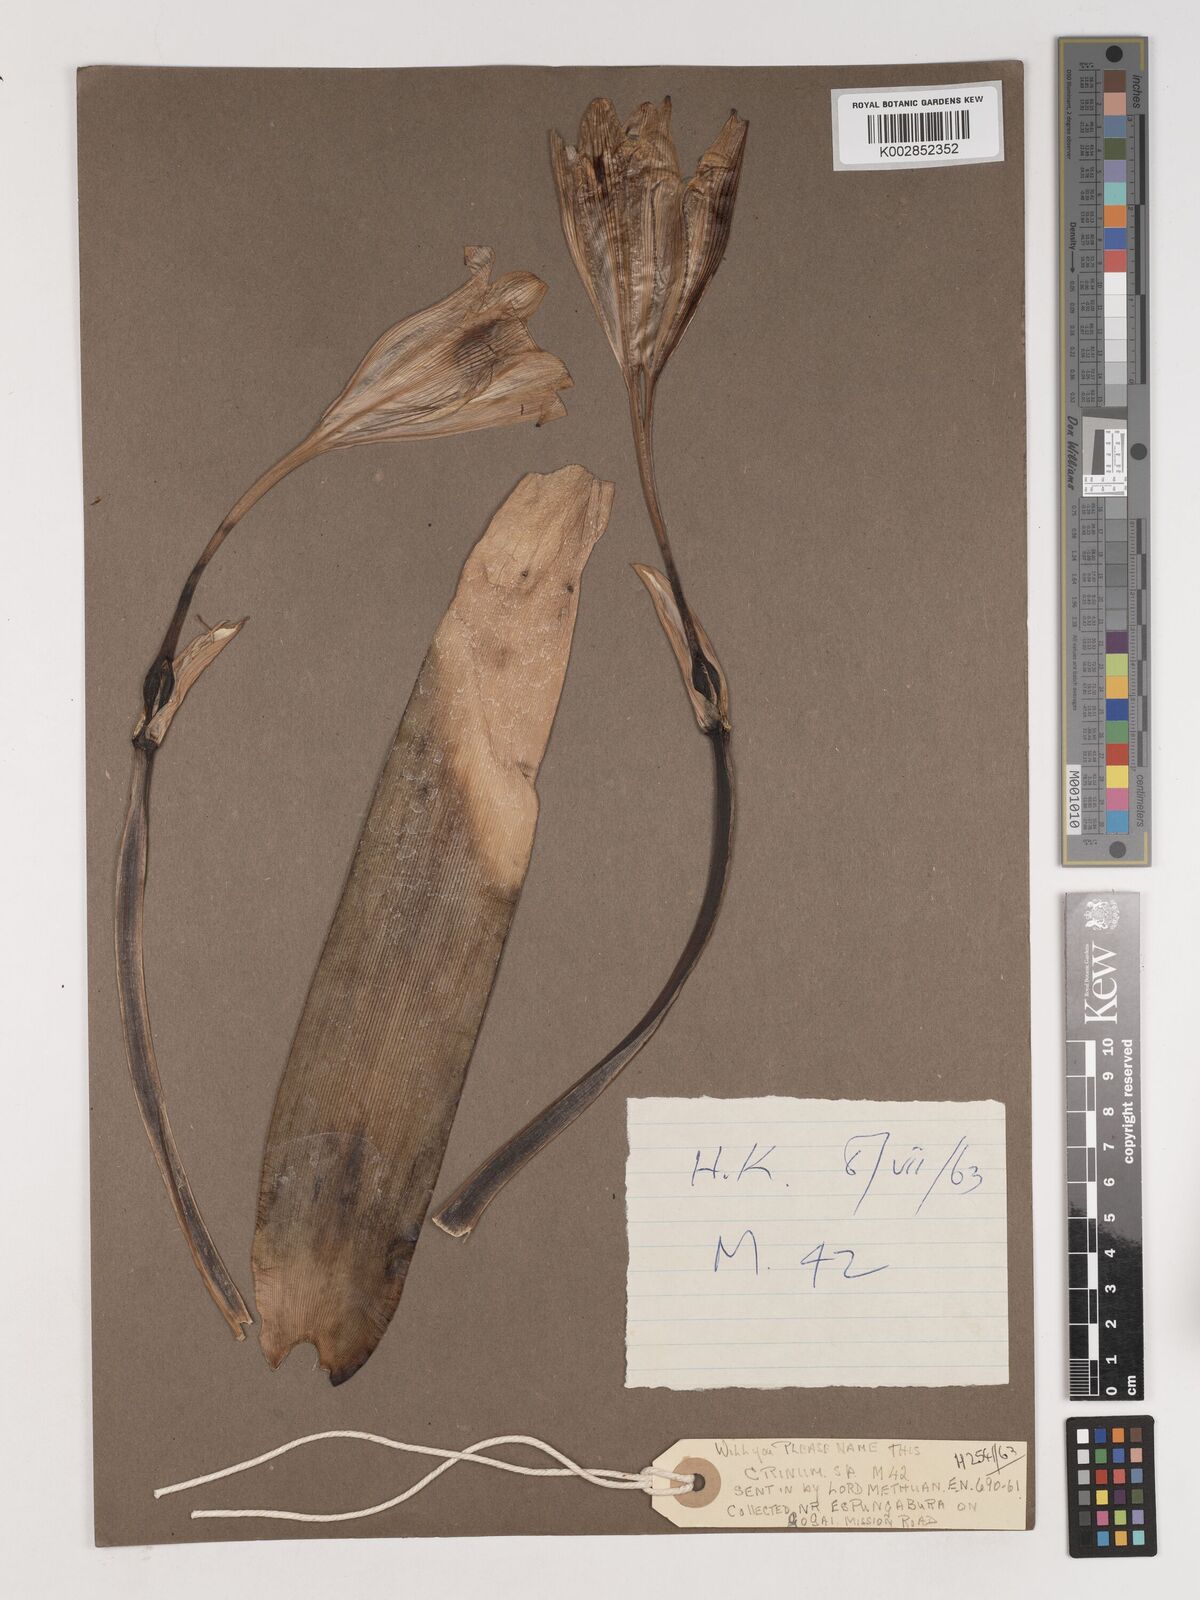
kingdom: Plantae
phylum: Tracheophyta
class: Liliopsida
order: Asparagales
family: Amaryllidaceae
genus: Crinum
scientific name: Crinum
